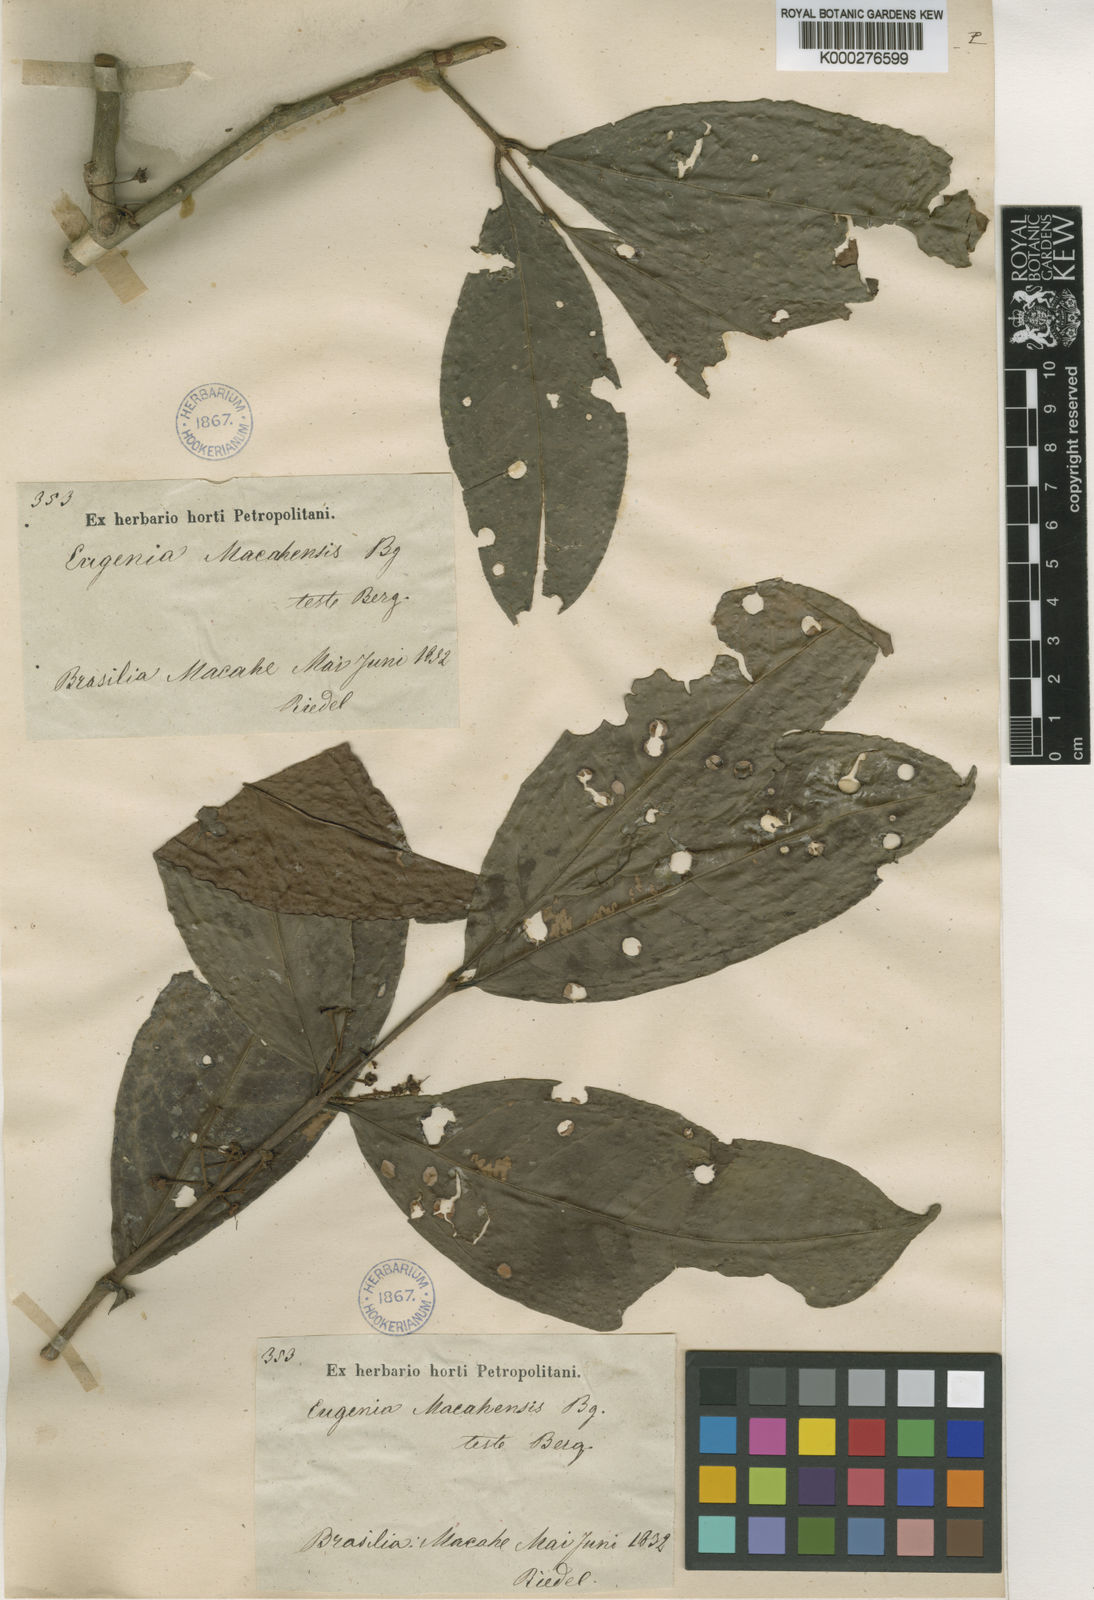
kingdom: Plantae
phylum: Tracheophyta
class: Magnoliopsida
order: Myrtales
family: Myrtaceae
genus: Eugenia
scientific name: Eugenia macahensis
